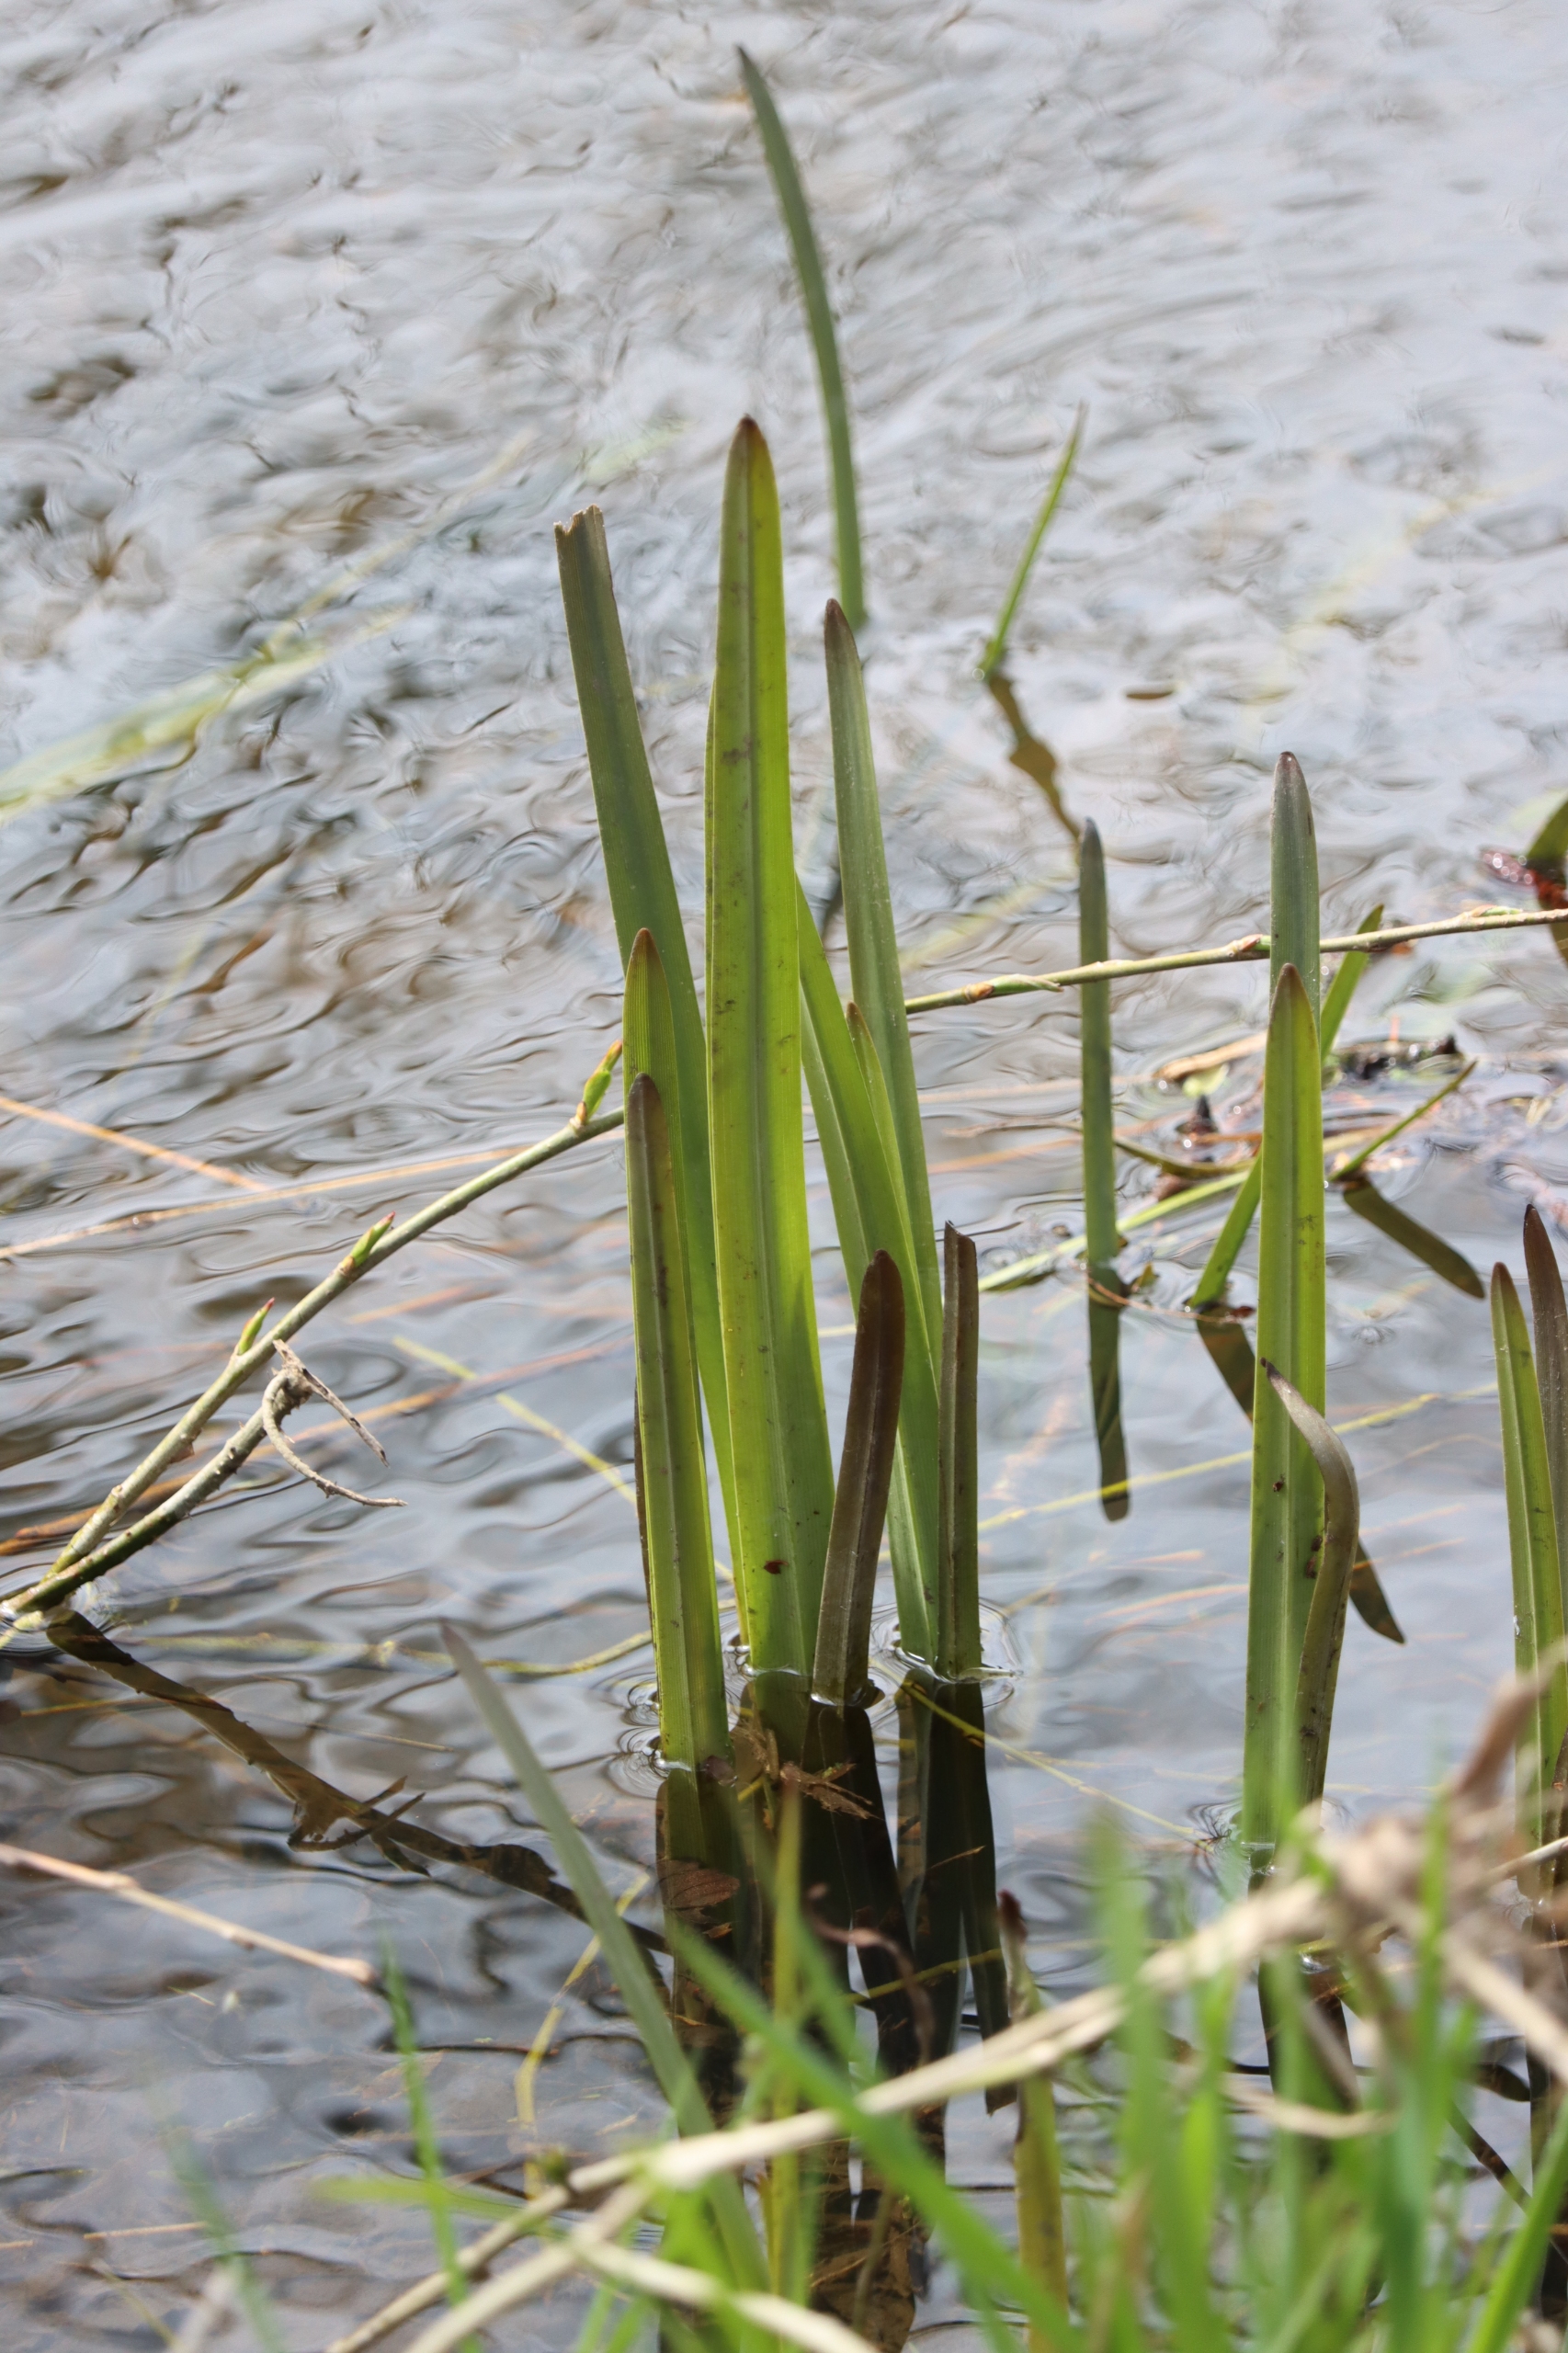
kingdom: Plantae
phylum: Tracheophyta
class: Liliopsida
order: Poales
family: Typhaceae
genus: Sparganium
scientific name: Sparganium
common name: Pindsvineknopslægten
